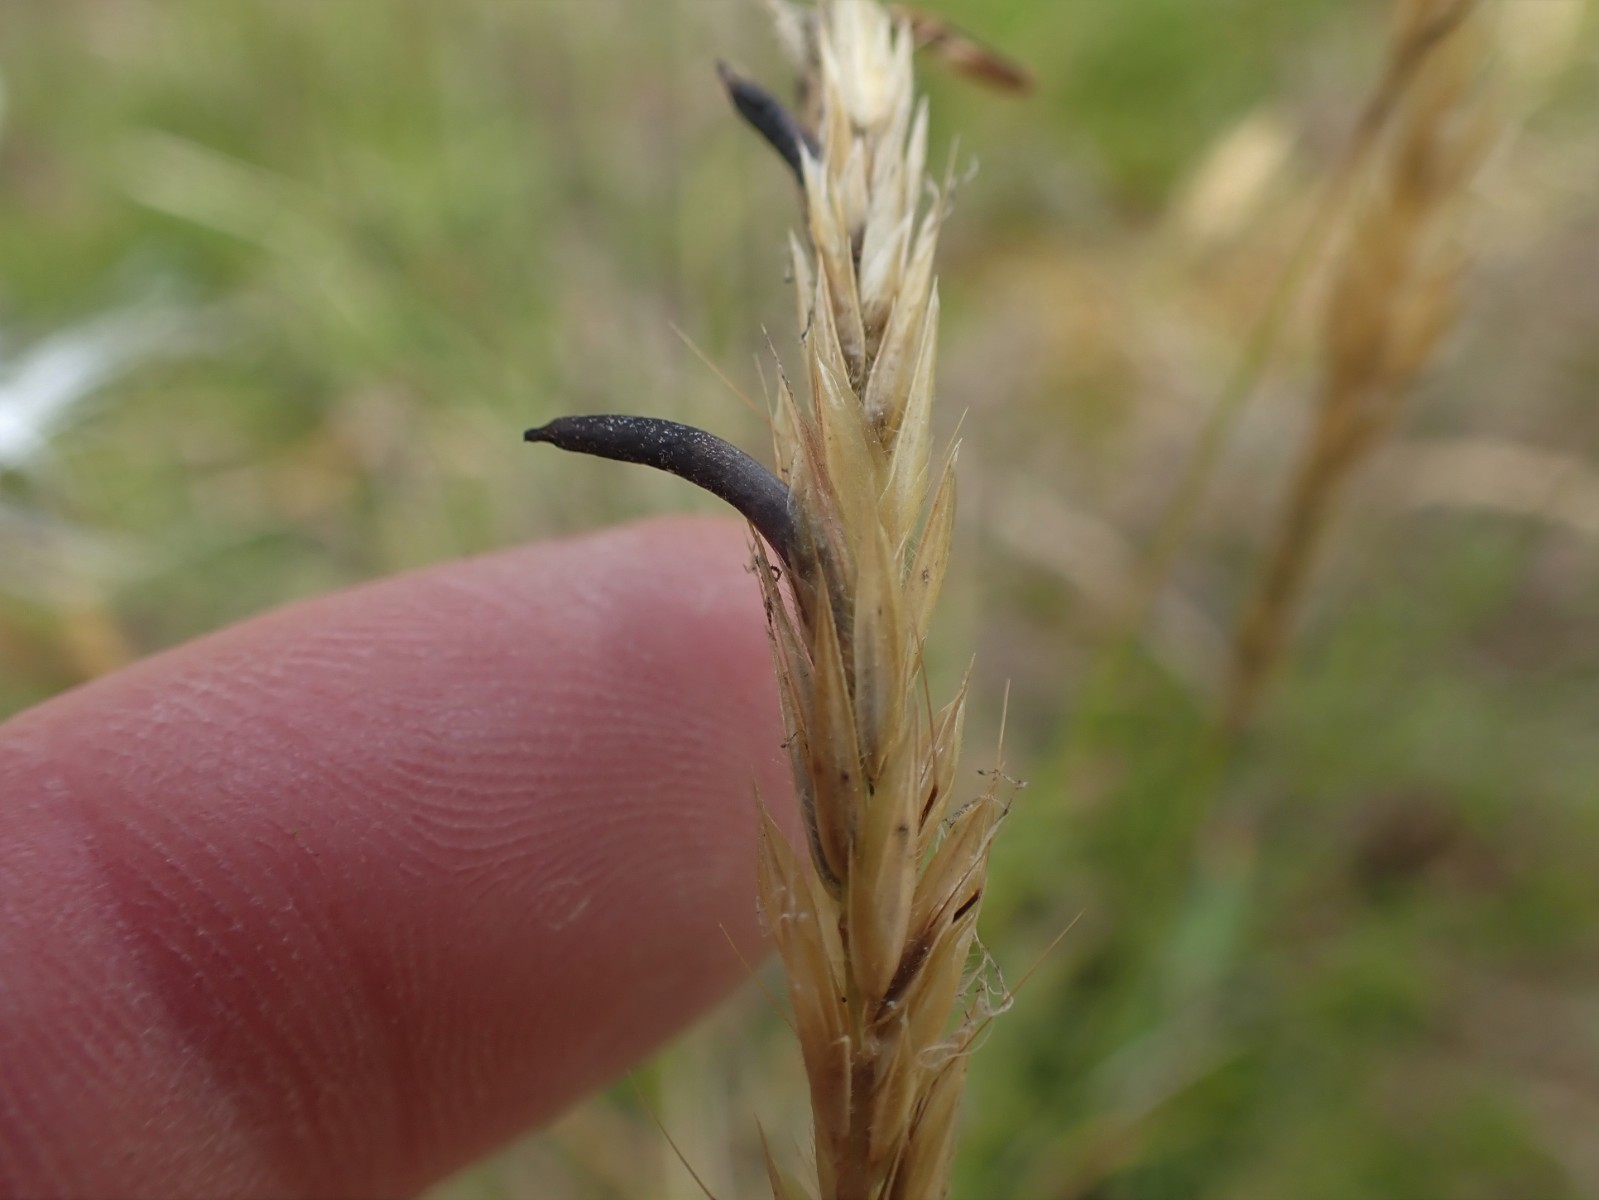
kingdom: Fungi
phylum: Ascomycota
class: Sordariomycetes
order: Hypocreales
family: Clavicipitaceae
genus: Claviceps
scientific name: Claviceps purpurea
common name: almindelig meldrøjer
